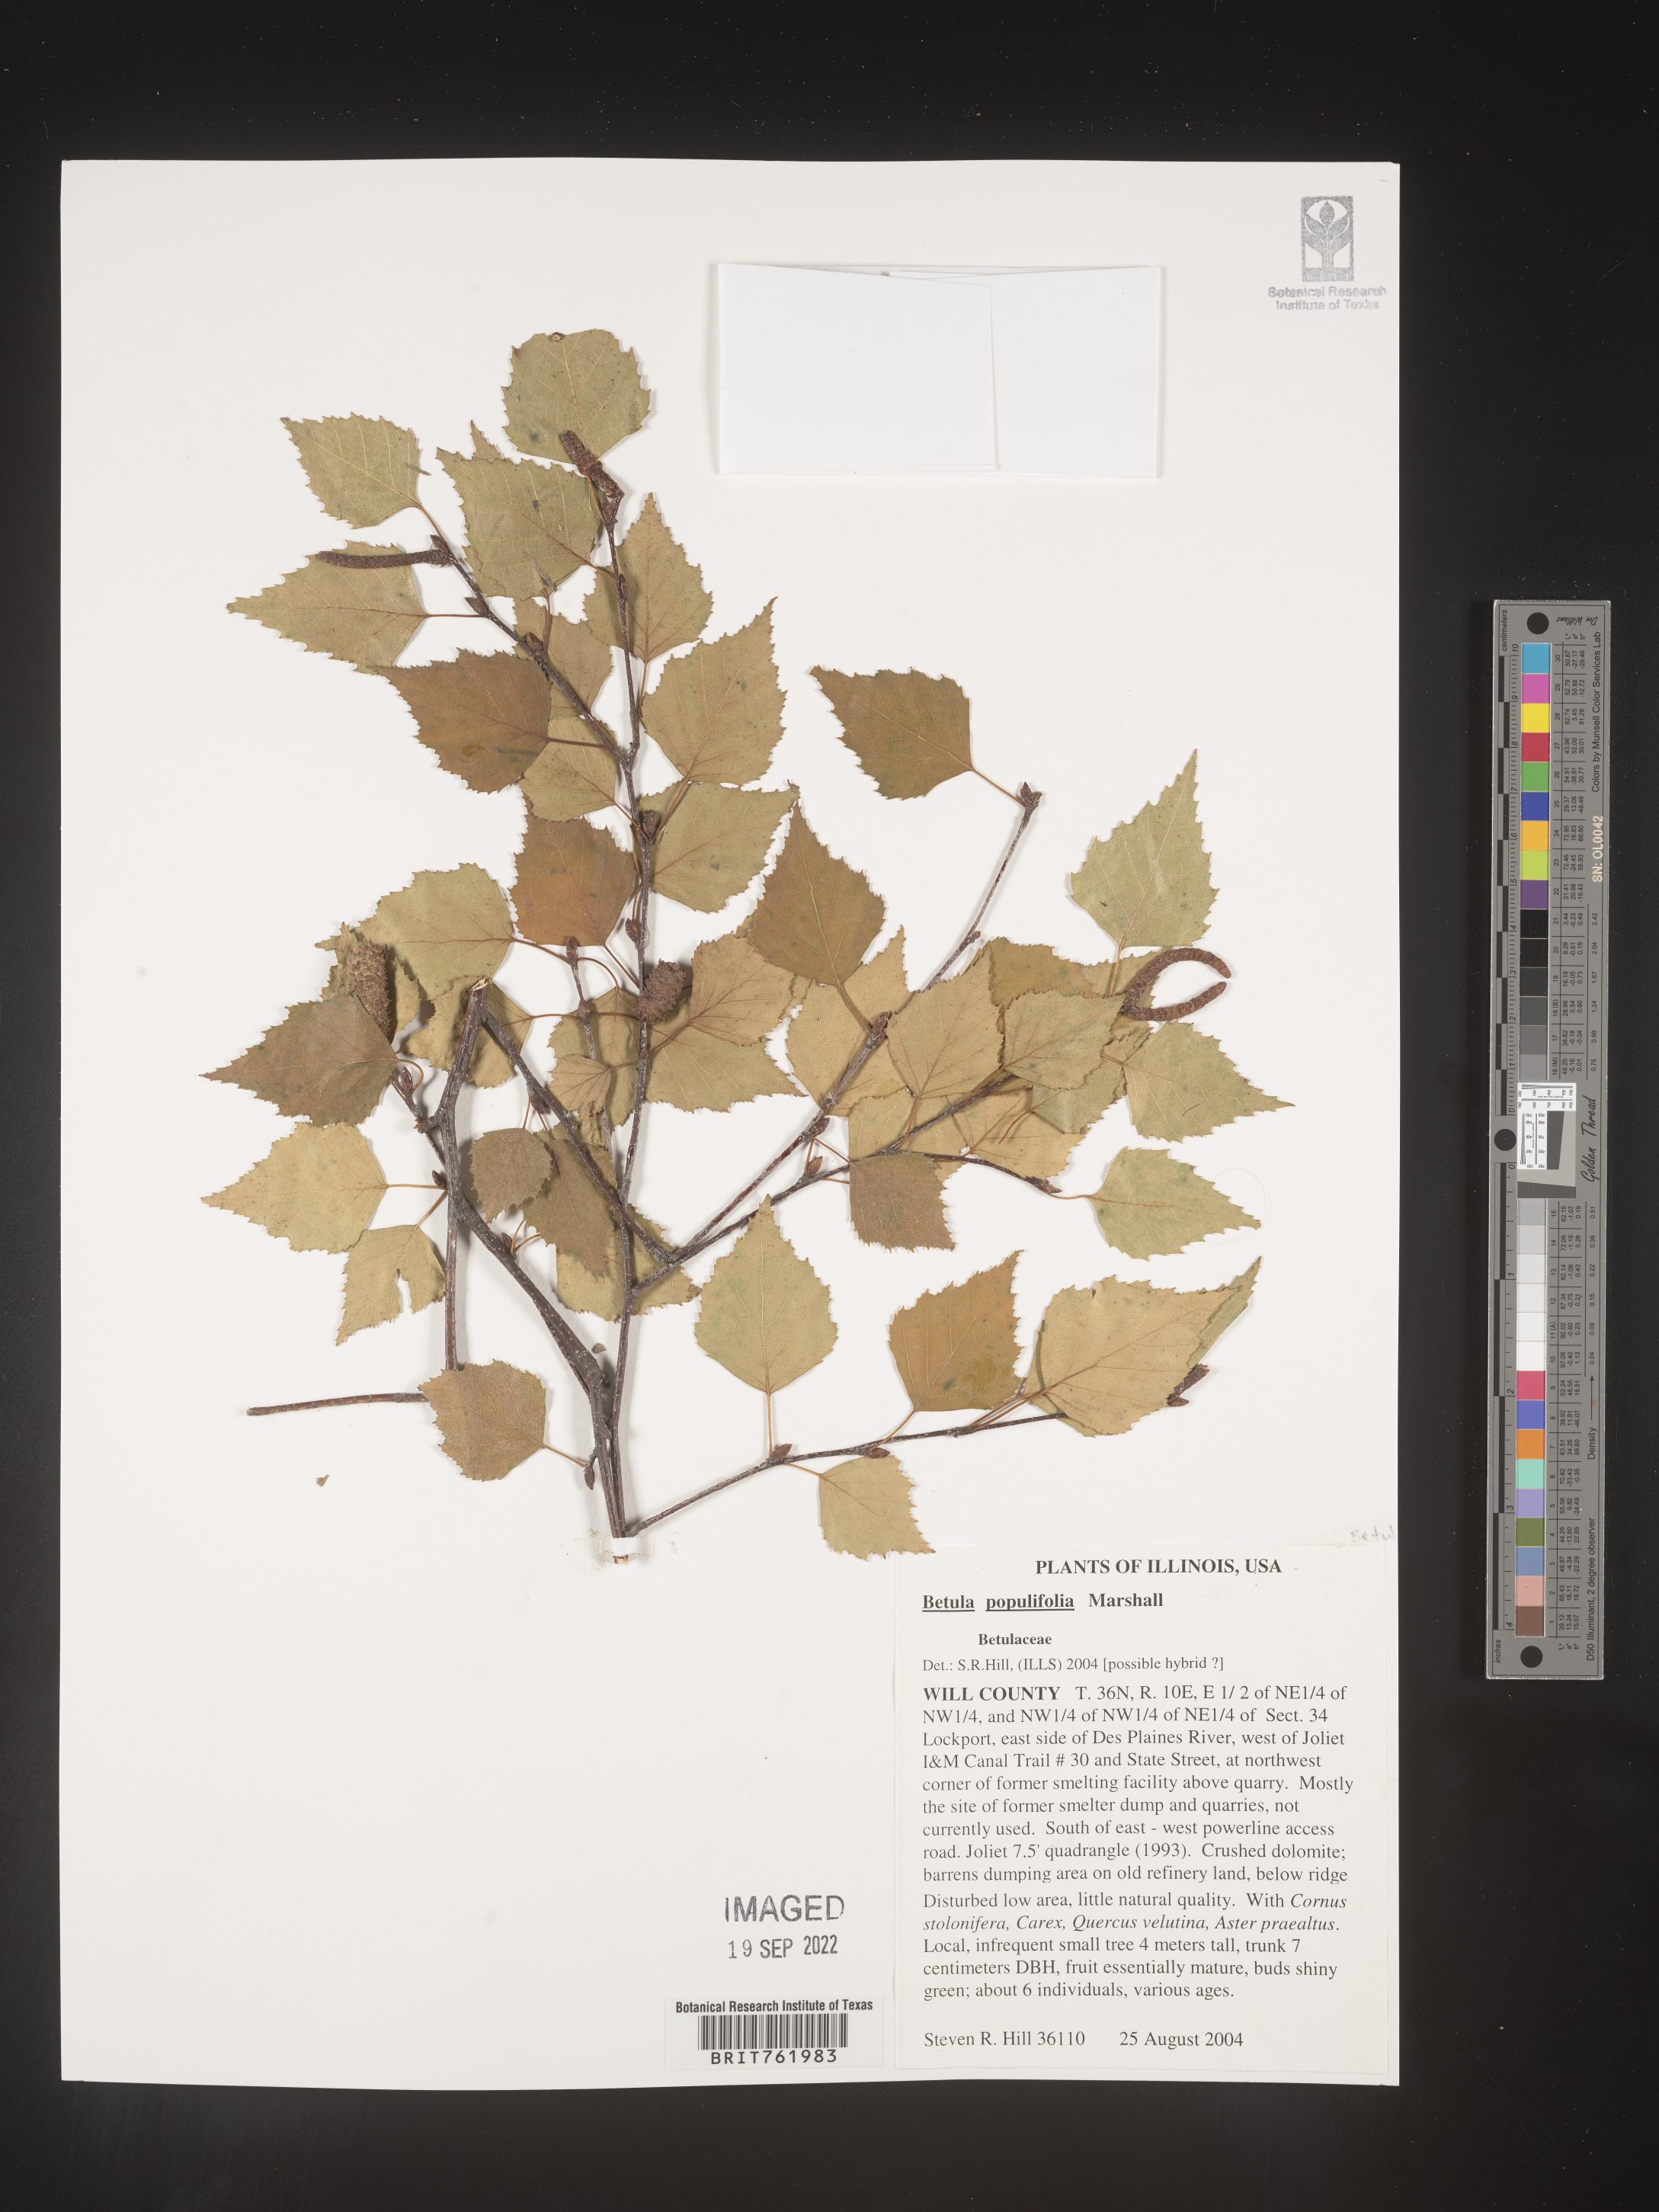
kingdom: Plantae
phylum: Tracheophyta
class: Magnoliopsida
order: Fagales
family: Betulaceae
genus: Betula
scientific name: Betula populifolia
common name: Fire birch
